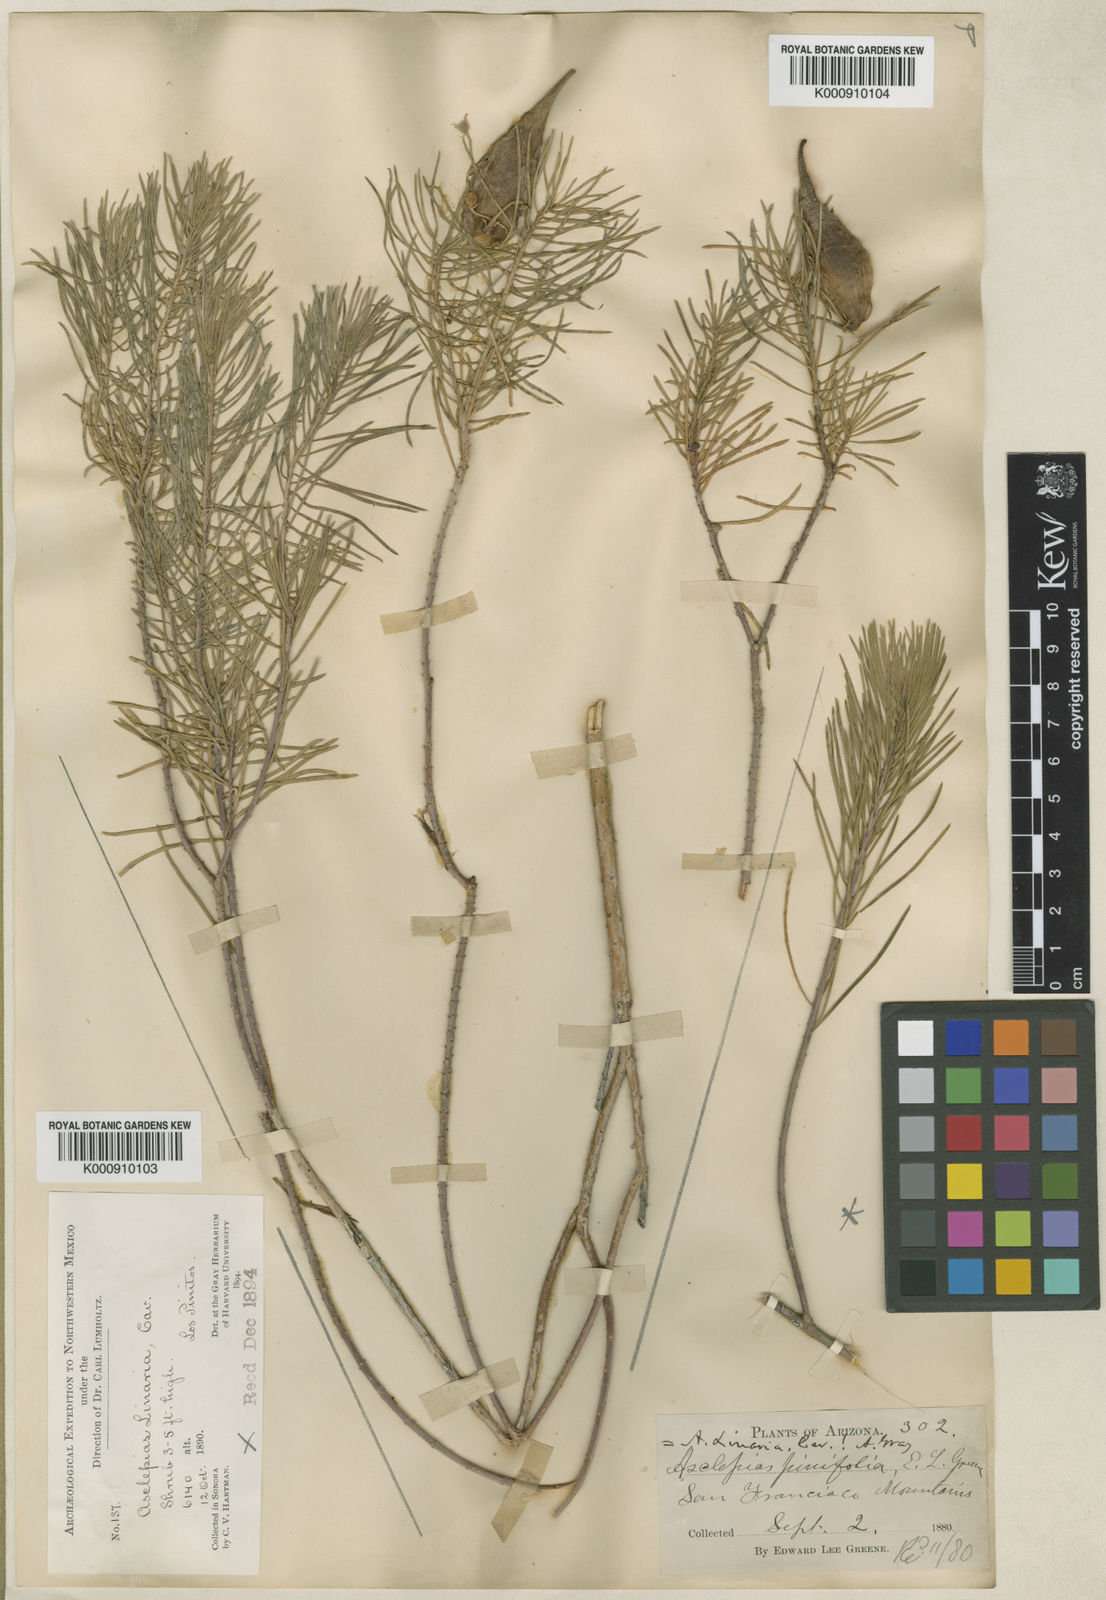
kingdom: Plantae
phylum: Tracheophyta
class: Magnoliopsida
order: Gentianales
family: Apocynaceae
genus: Asclepias
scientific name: Asclepias
